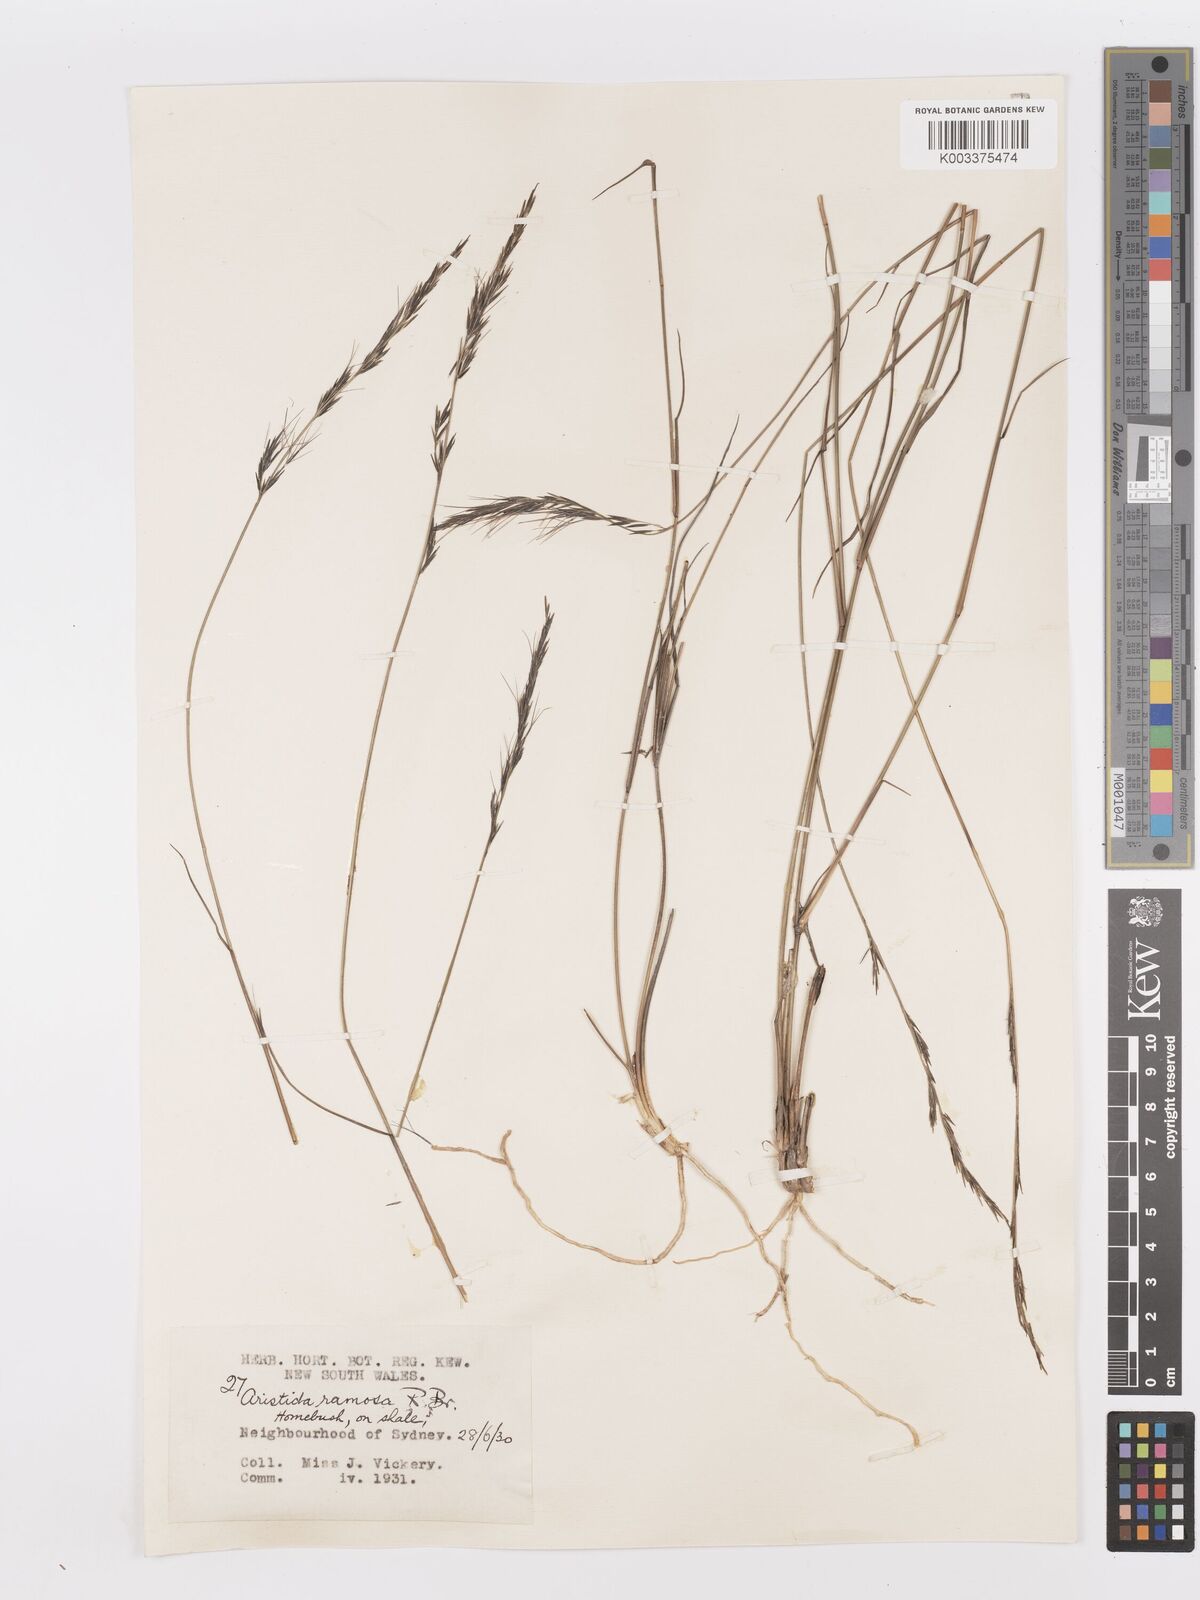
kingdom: Plantae
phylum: Tracheophyta
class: Liliopsida
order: Poales
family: Poaceae
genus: Aristida
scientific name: Aristida ramosa
